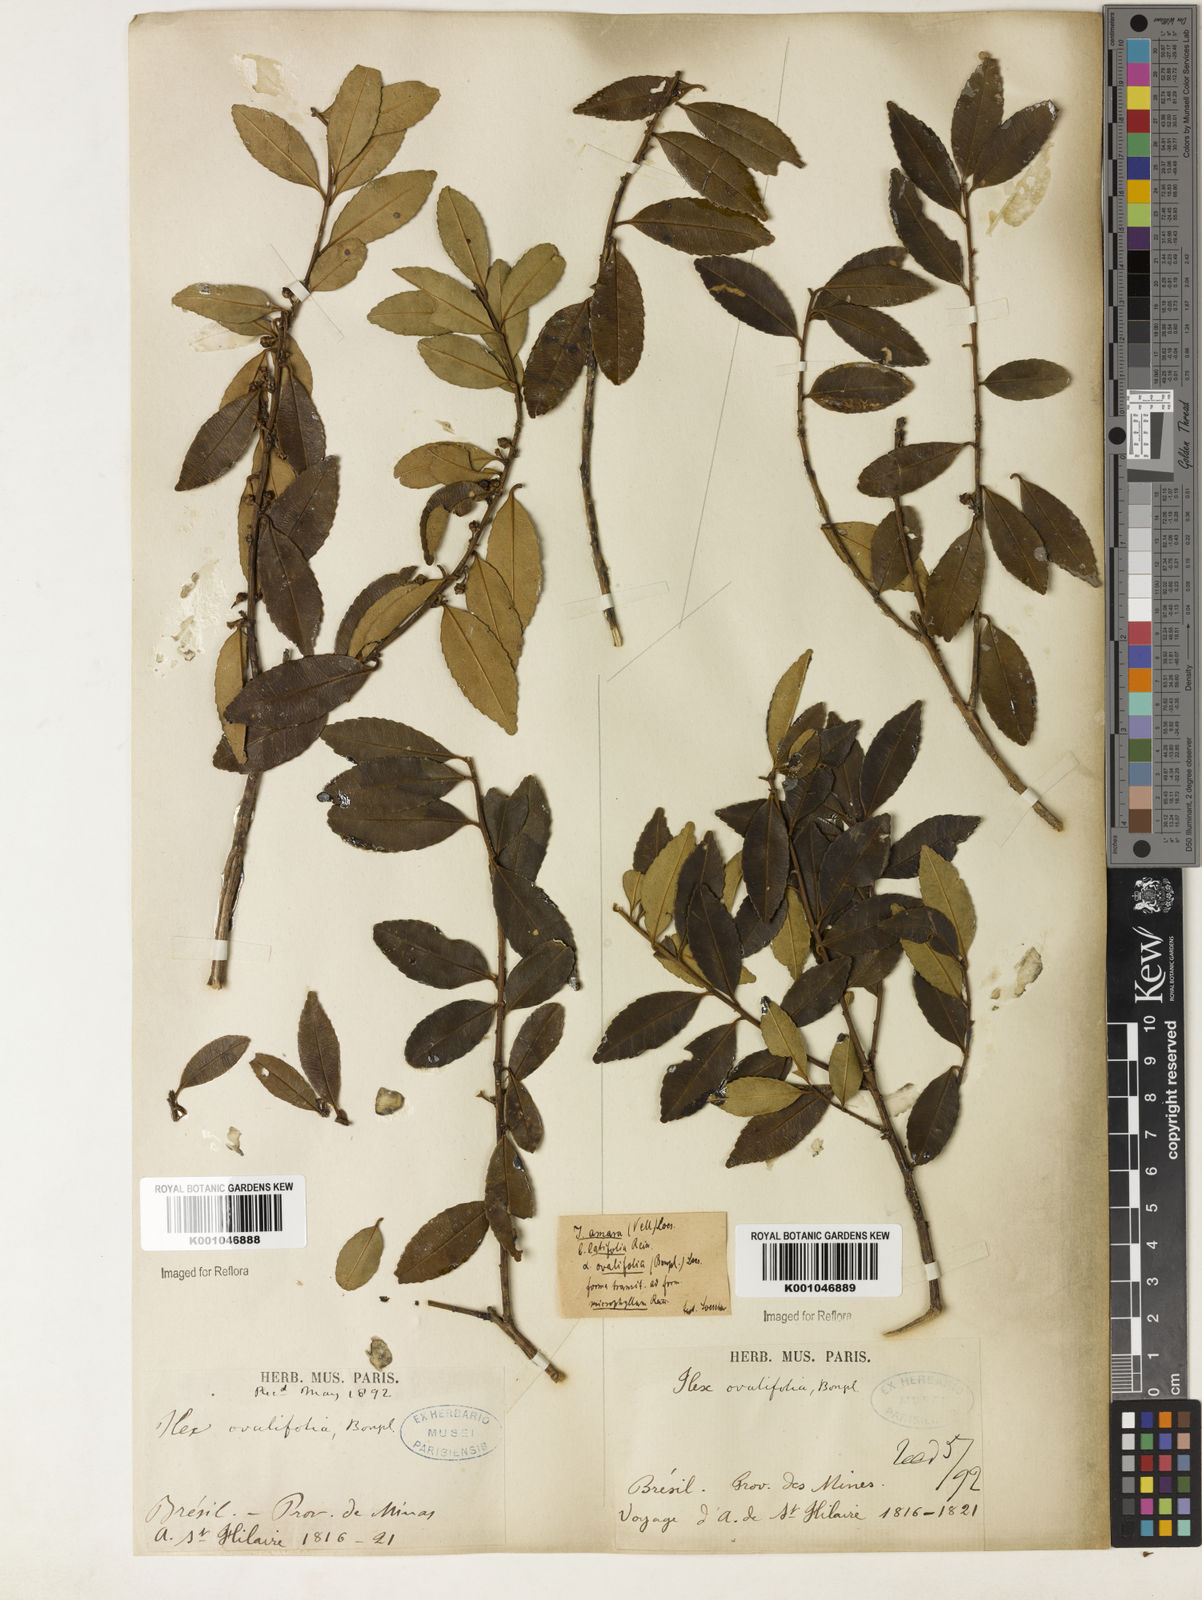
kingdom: Plantae
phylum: Tracheophyta
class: Magnoliopsida
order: Aquifoliales
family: Aquifoliaceae
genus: Ilex
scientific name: Ilex
